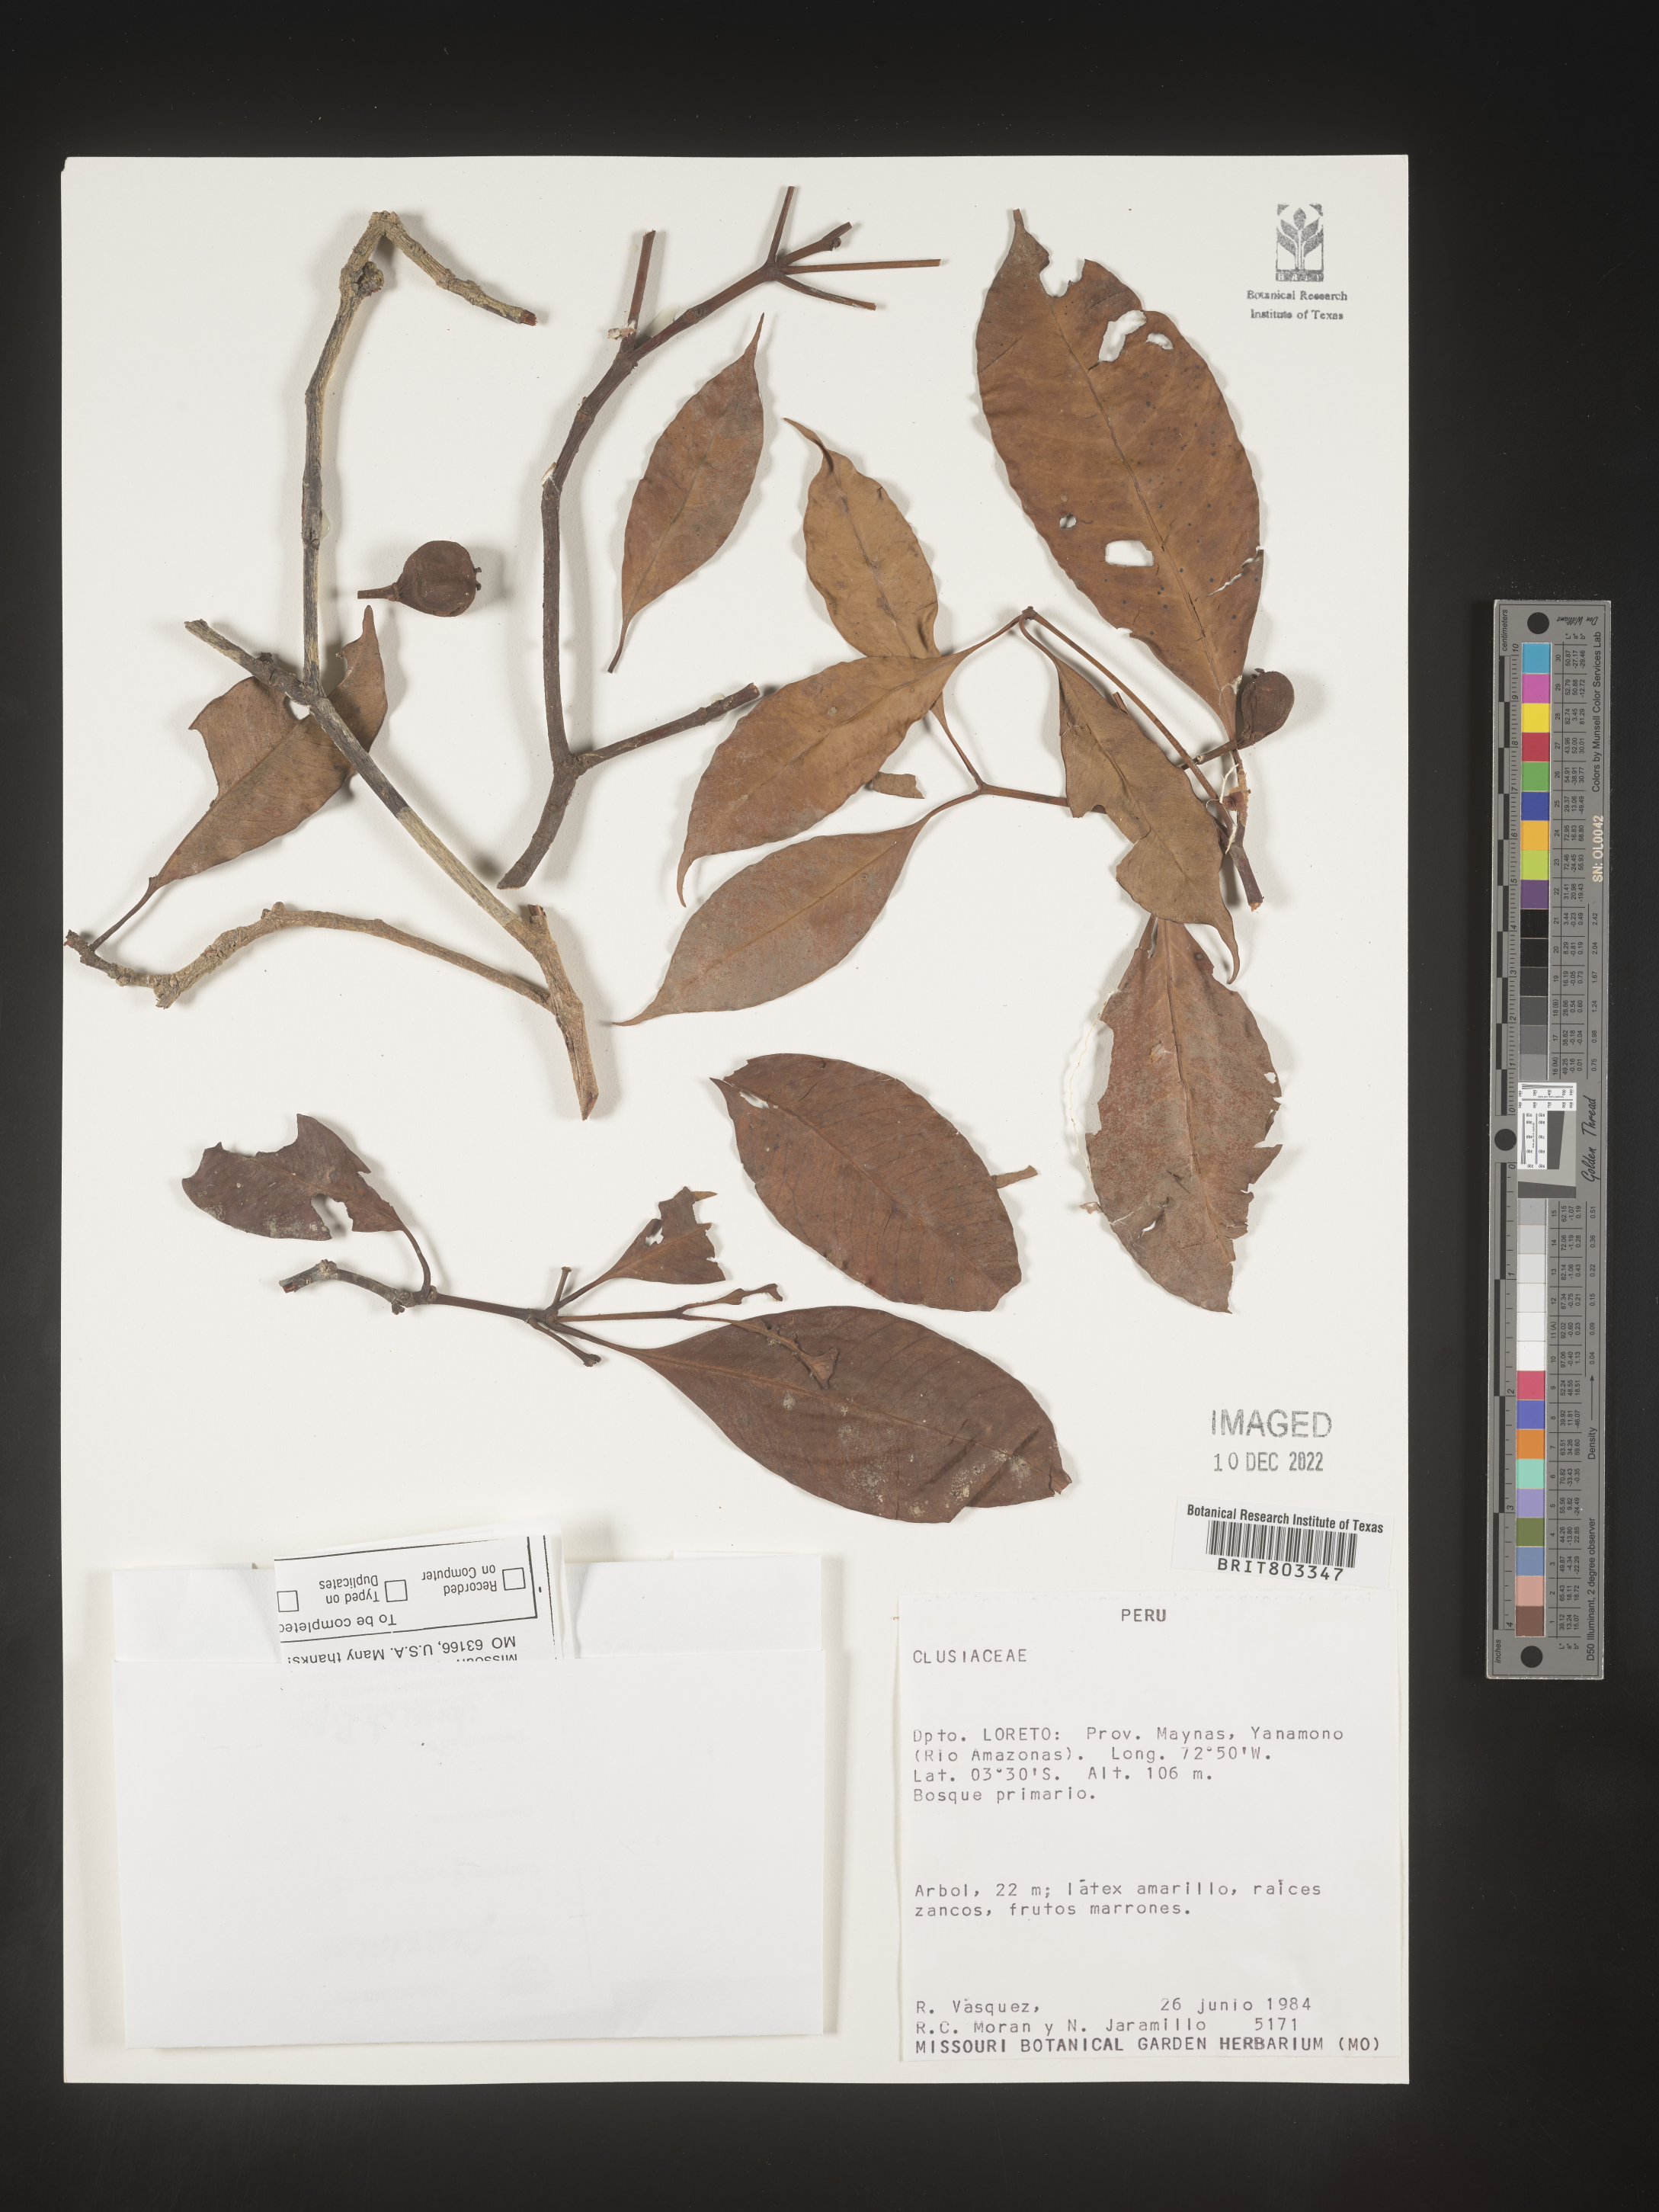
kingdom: Plantae
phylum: Tracheophyta
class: Magnoliopsida
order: Malpighiales
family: Clusiaceae
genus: Tovomita
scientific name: Tovomita
